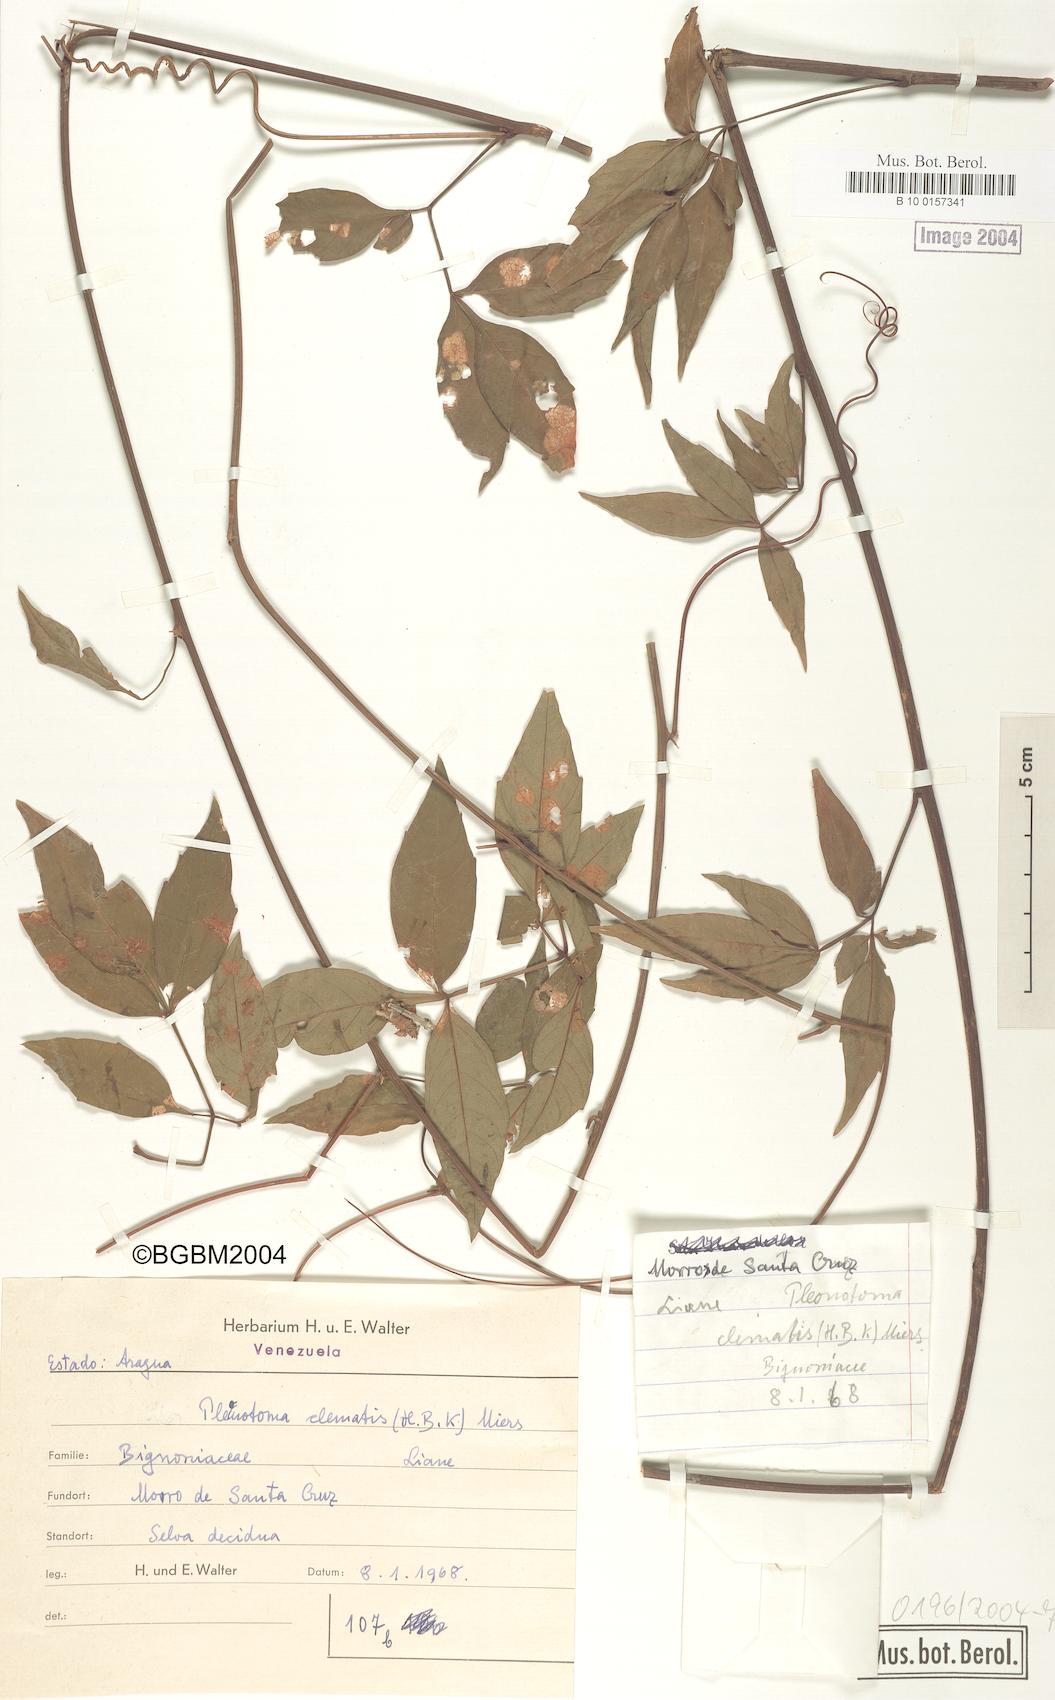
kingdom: Plantae
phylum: Tracheophyta
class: Magnoliopsida
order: Lamiales
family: Bignoniaceae
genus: Pleonotoma
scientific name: Pleonotoma clematis
